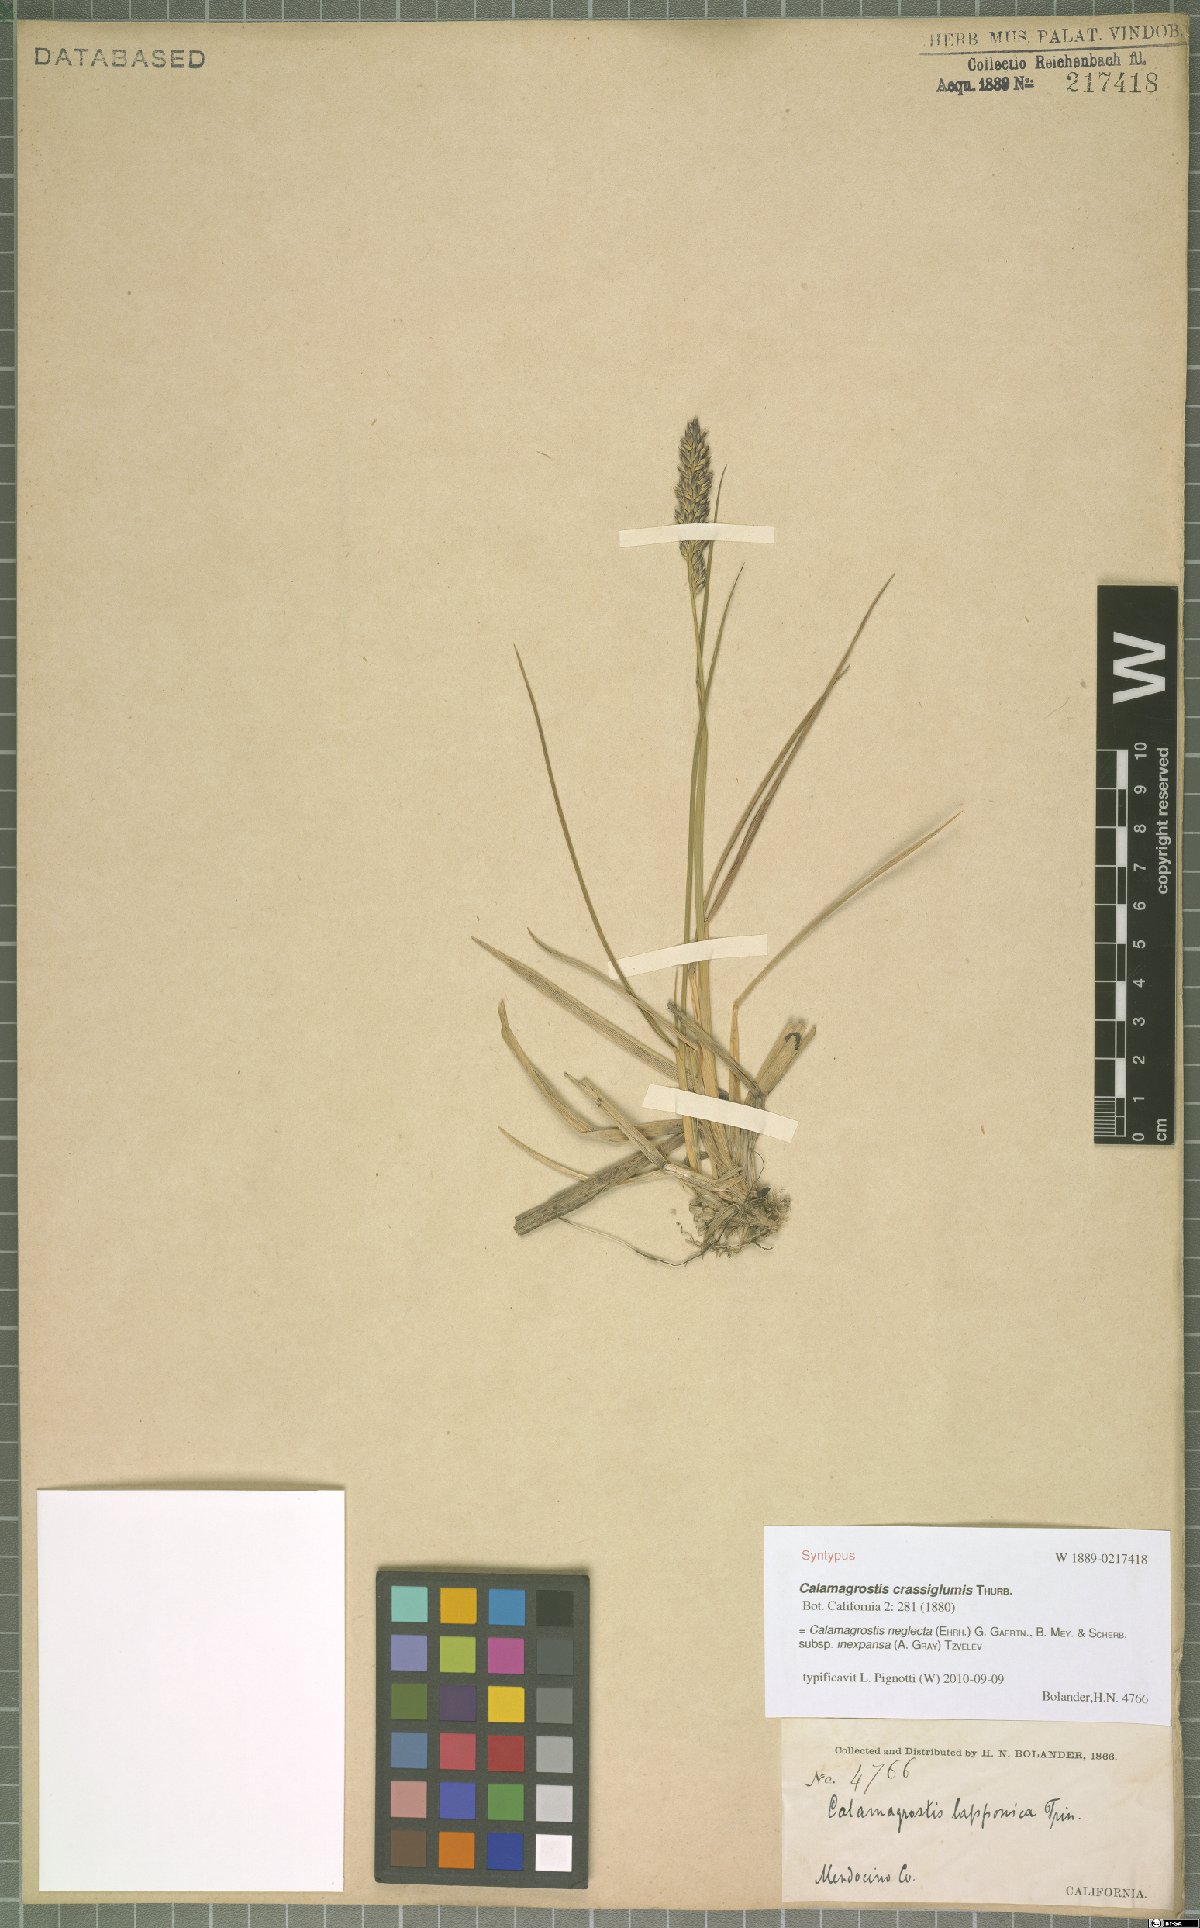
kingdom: Plantae
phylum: Tracheophyta
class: Liliopsida
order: Poales
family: Poaceae
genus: Calamagrostis
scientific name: Calamagrostis inexpansa
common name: Northern reedgrass
